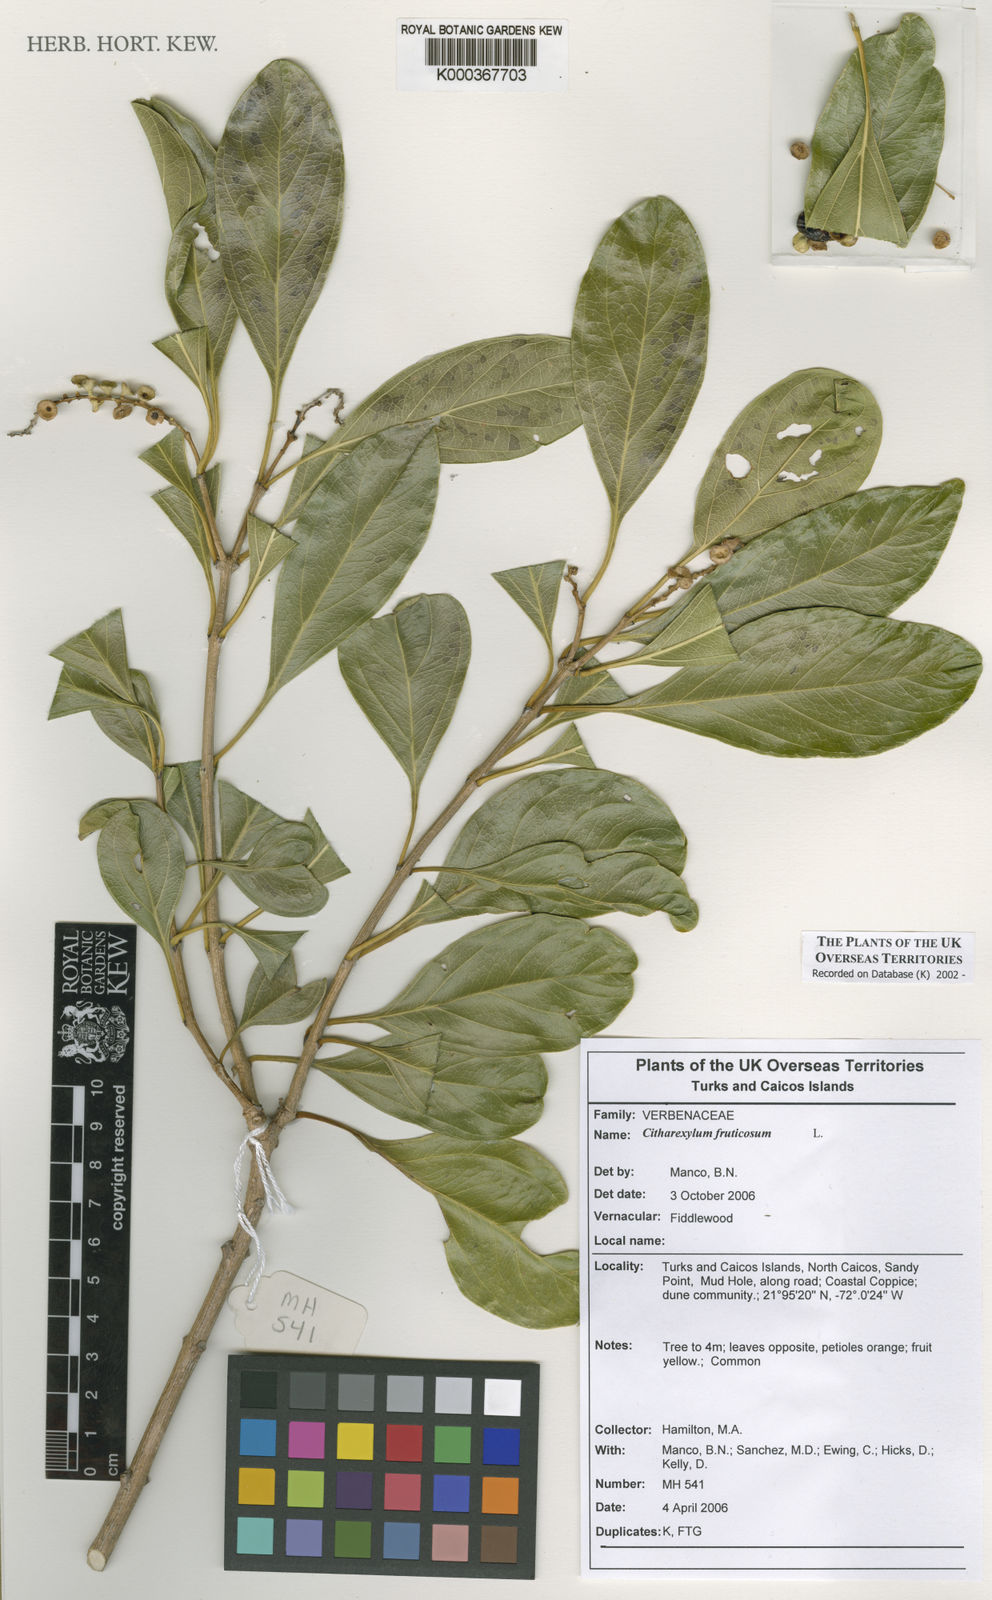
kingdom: Plantae
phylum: Tracheophyta
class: Magnoliopsida
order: Lamiales
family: Verbenaceae
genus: Citharexylum
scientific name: Citharexylum spinosum
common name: Fiddlewood
